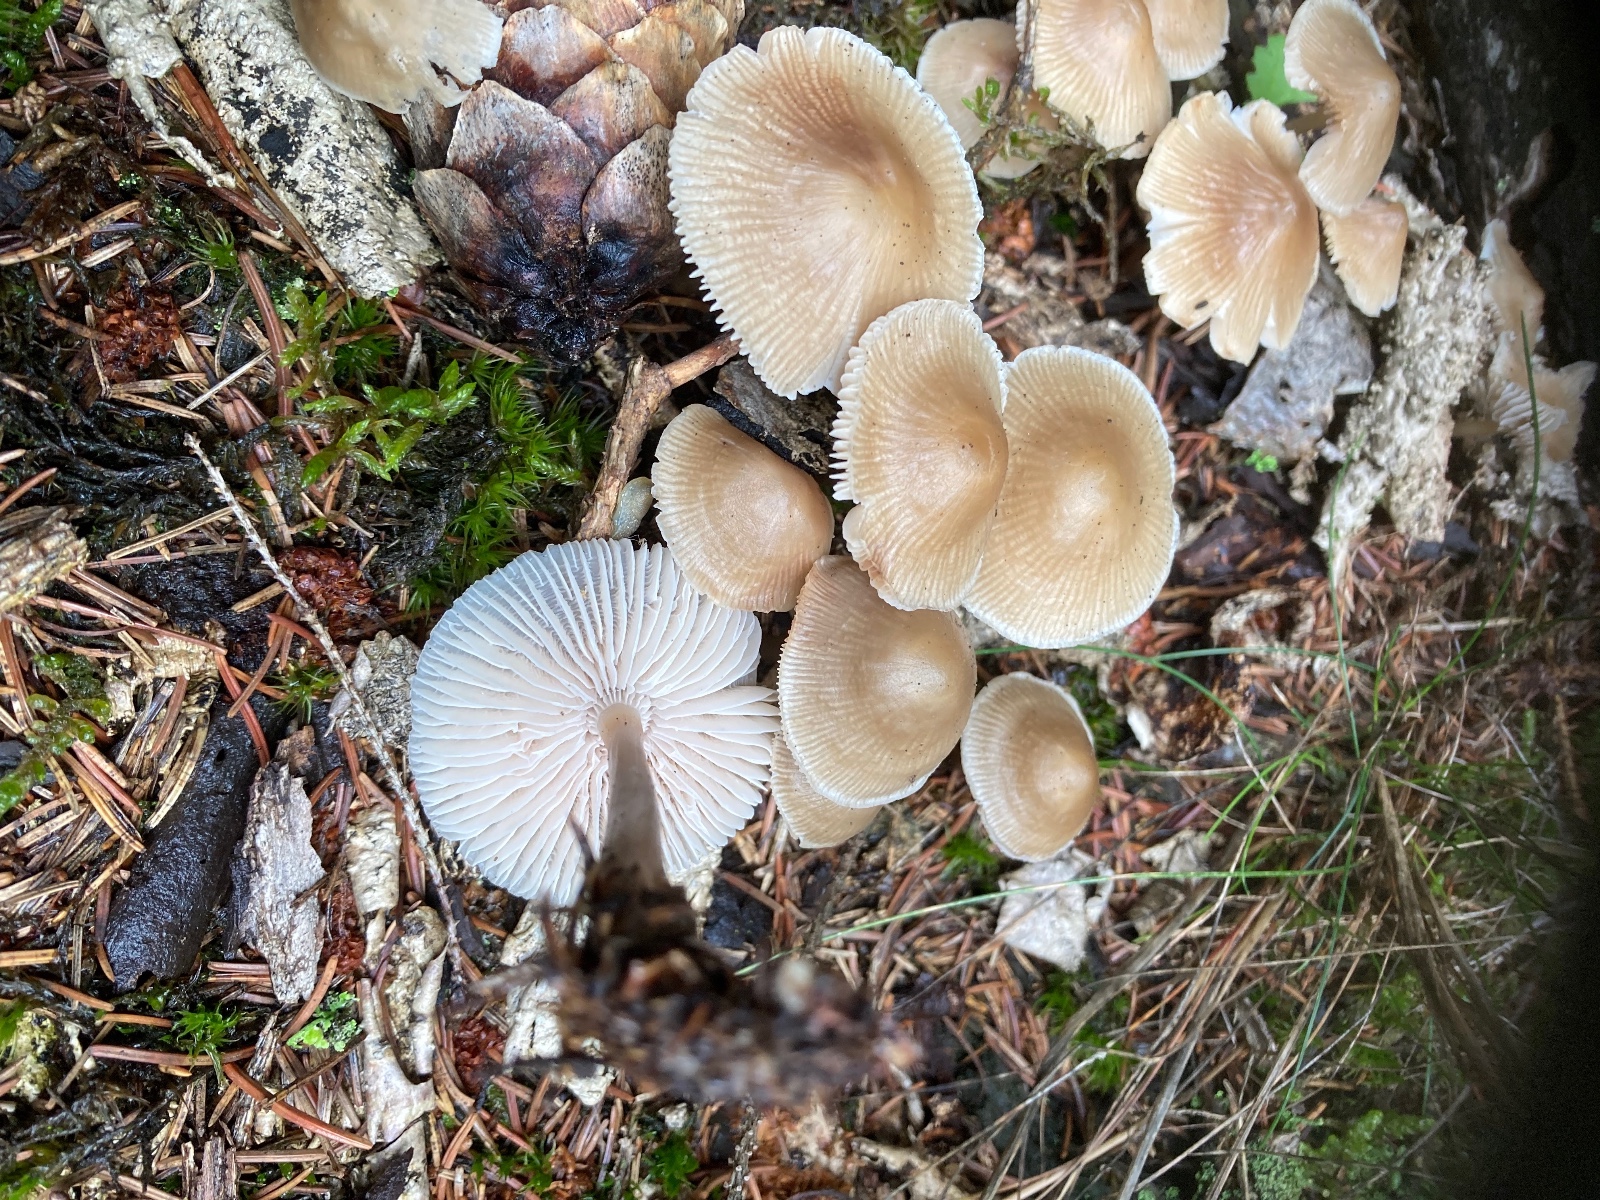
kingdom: Fungi
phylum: Basidiomycota
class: Agaricomycetes
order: Agaricales
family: Mycenaceae
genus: Mycena
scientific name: Mycena galericulata
